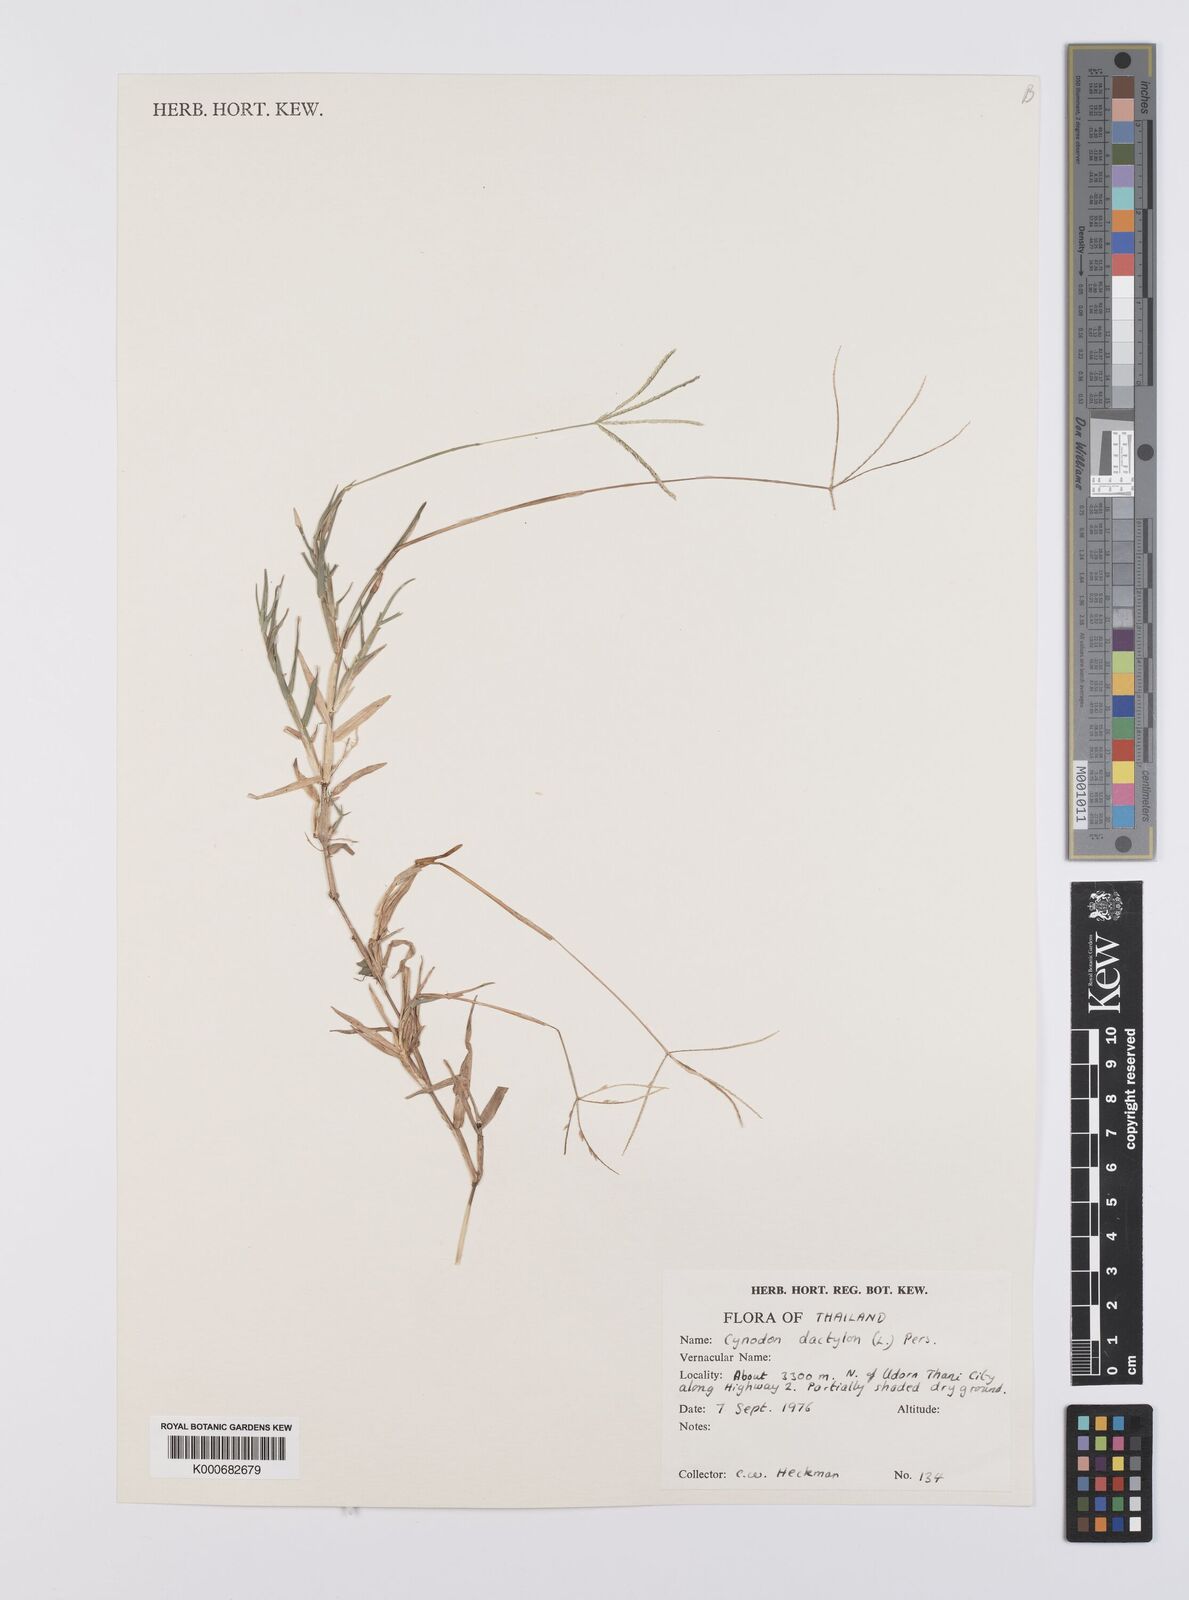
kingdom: Plantae
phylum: Tracheophyta
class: Liliopsida
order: Poales
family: Poaceae
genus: Cynodon
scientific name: Cynodon dactylon
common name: Bermuda grass
